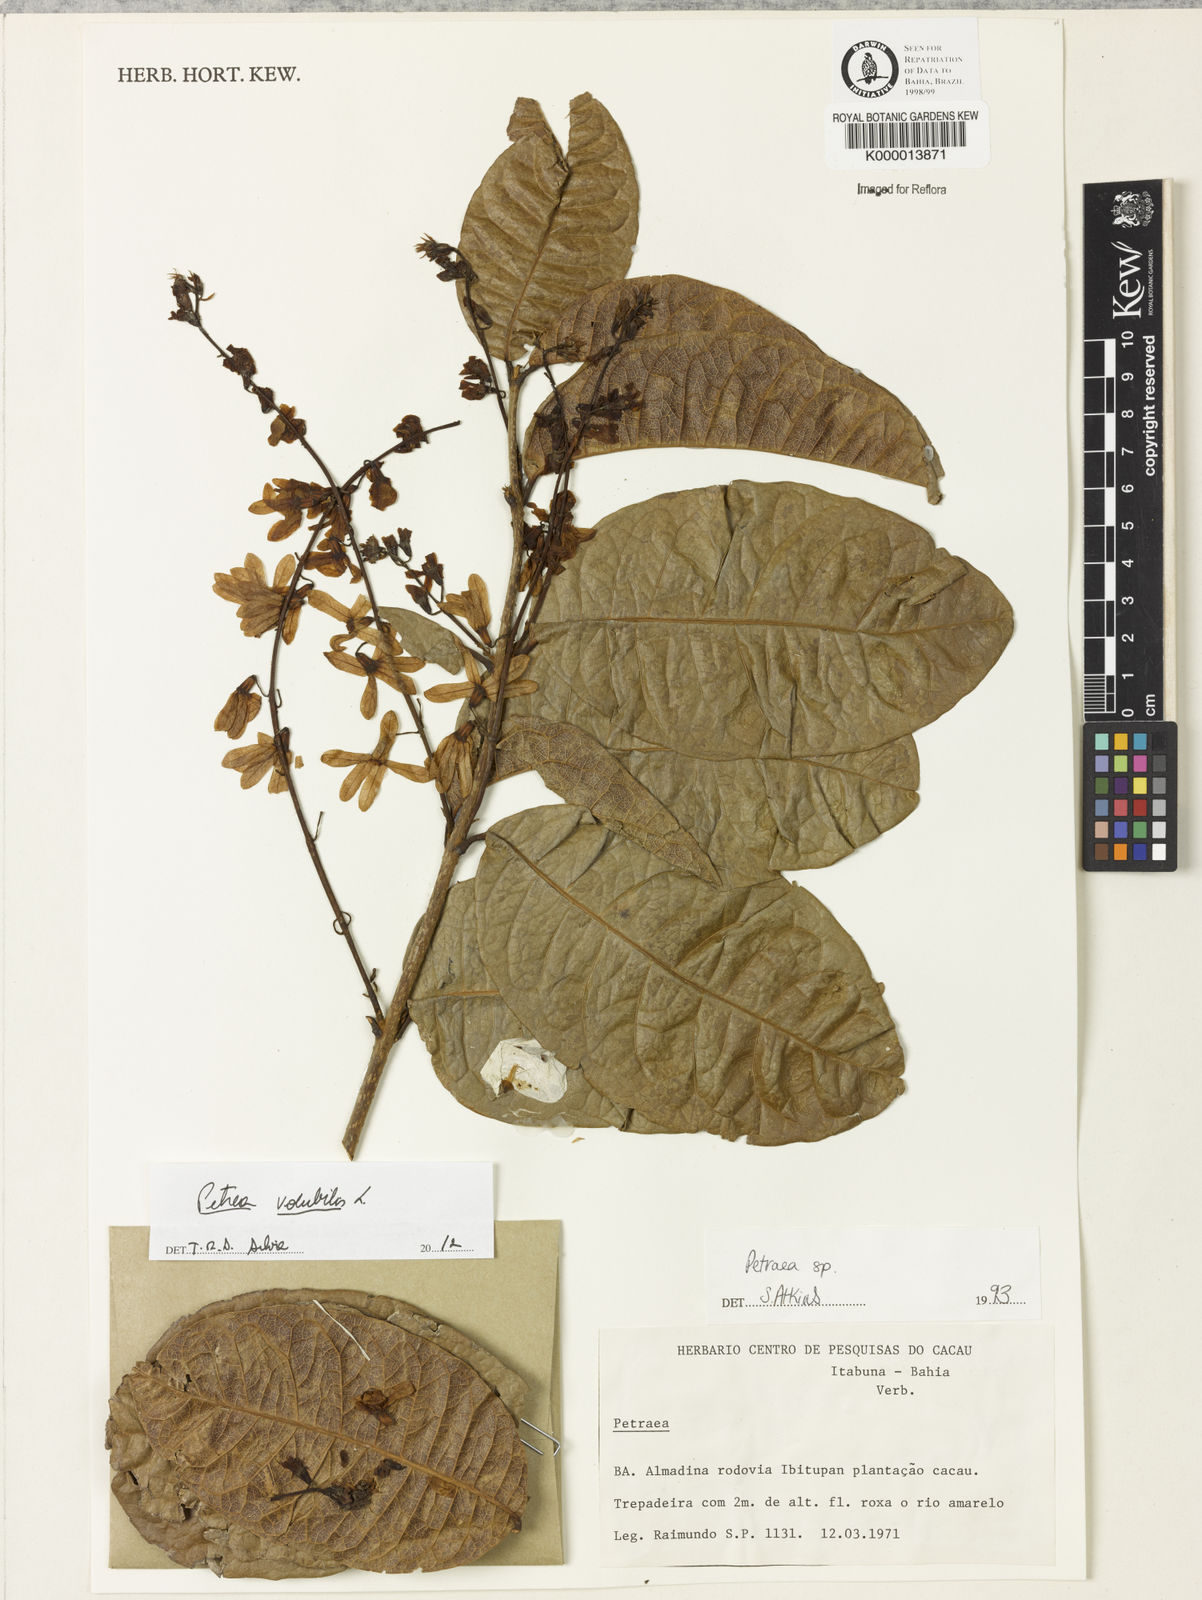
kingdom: Plantae
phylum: Tracheophyta
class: Magnoliopsida
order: Lamiales
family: Verbenaceae
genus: Petrea
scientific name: Petrea
